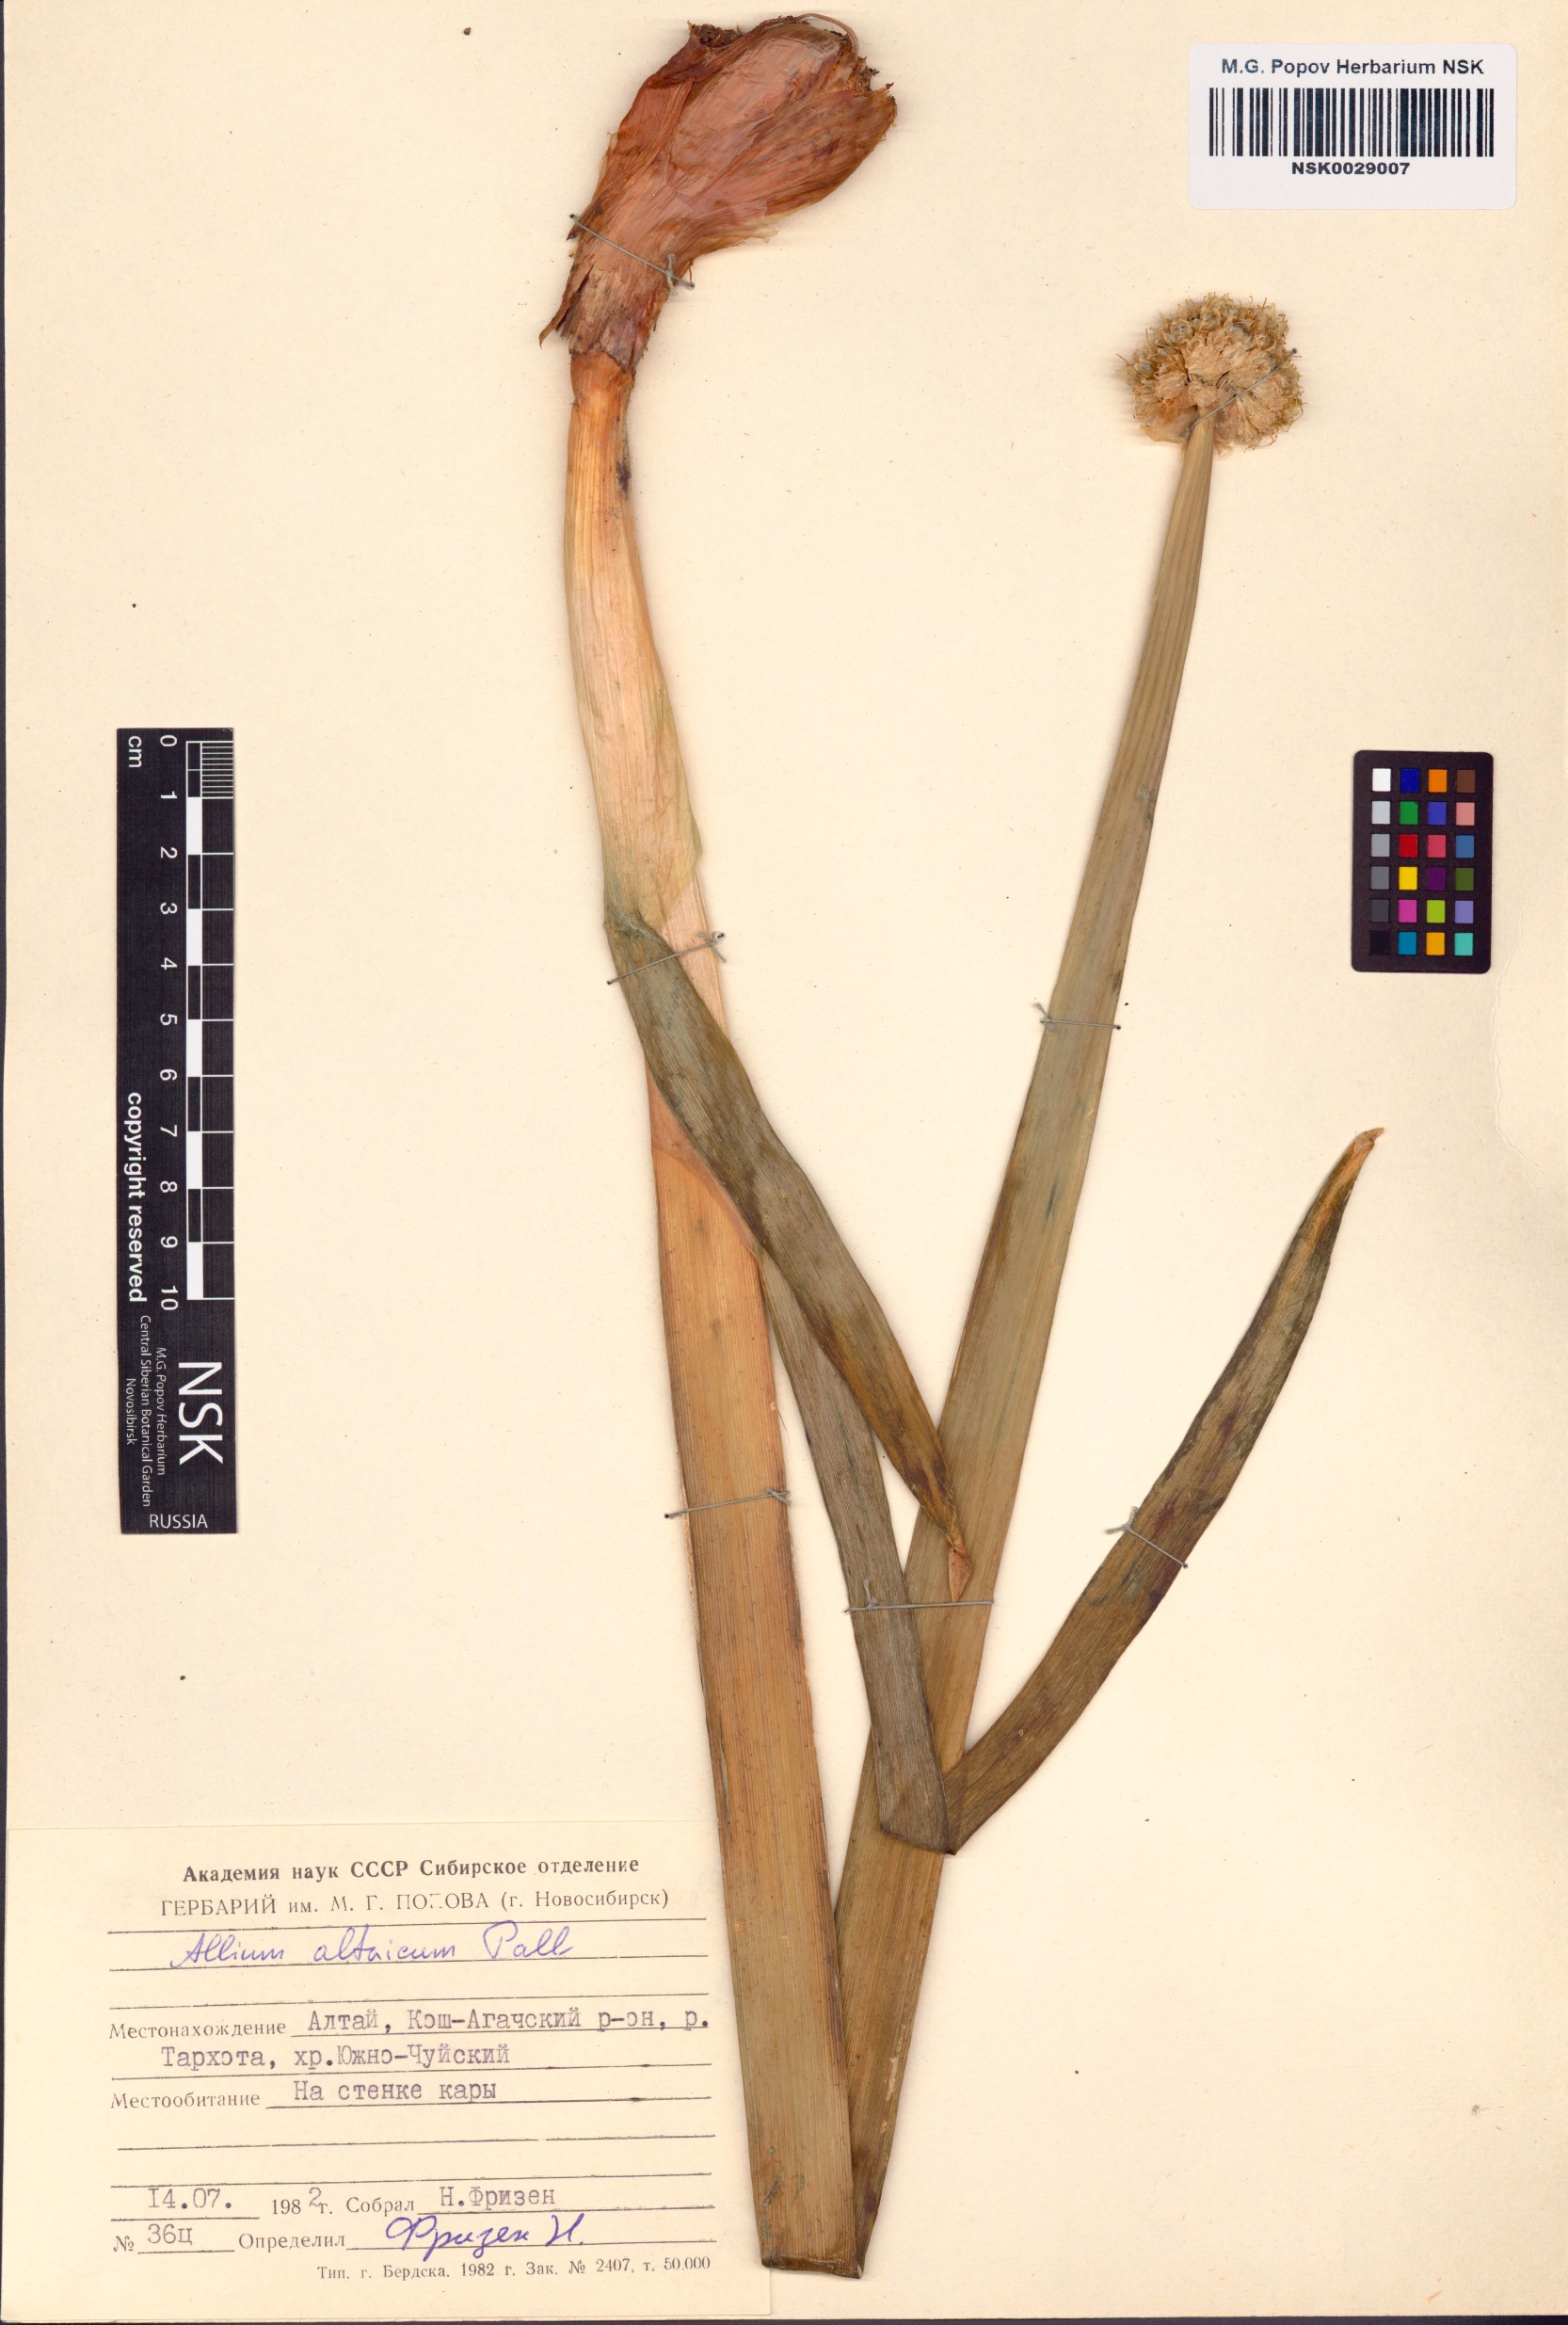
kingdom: Plantae
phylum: Tracheophyta
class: Liliopsida
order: Asparagales
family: Amaryllidaceae
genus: Allium
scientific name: Allium altaicum
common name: Altai onion
